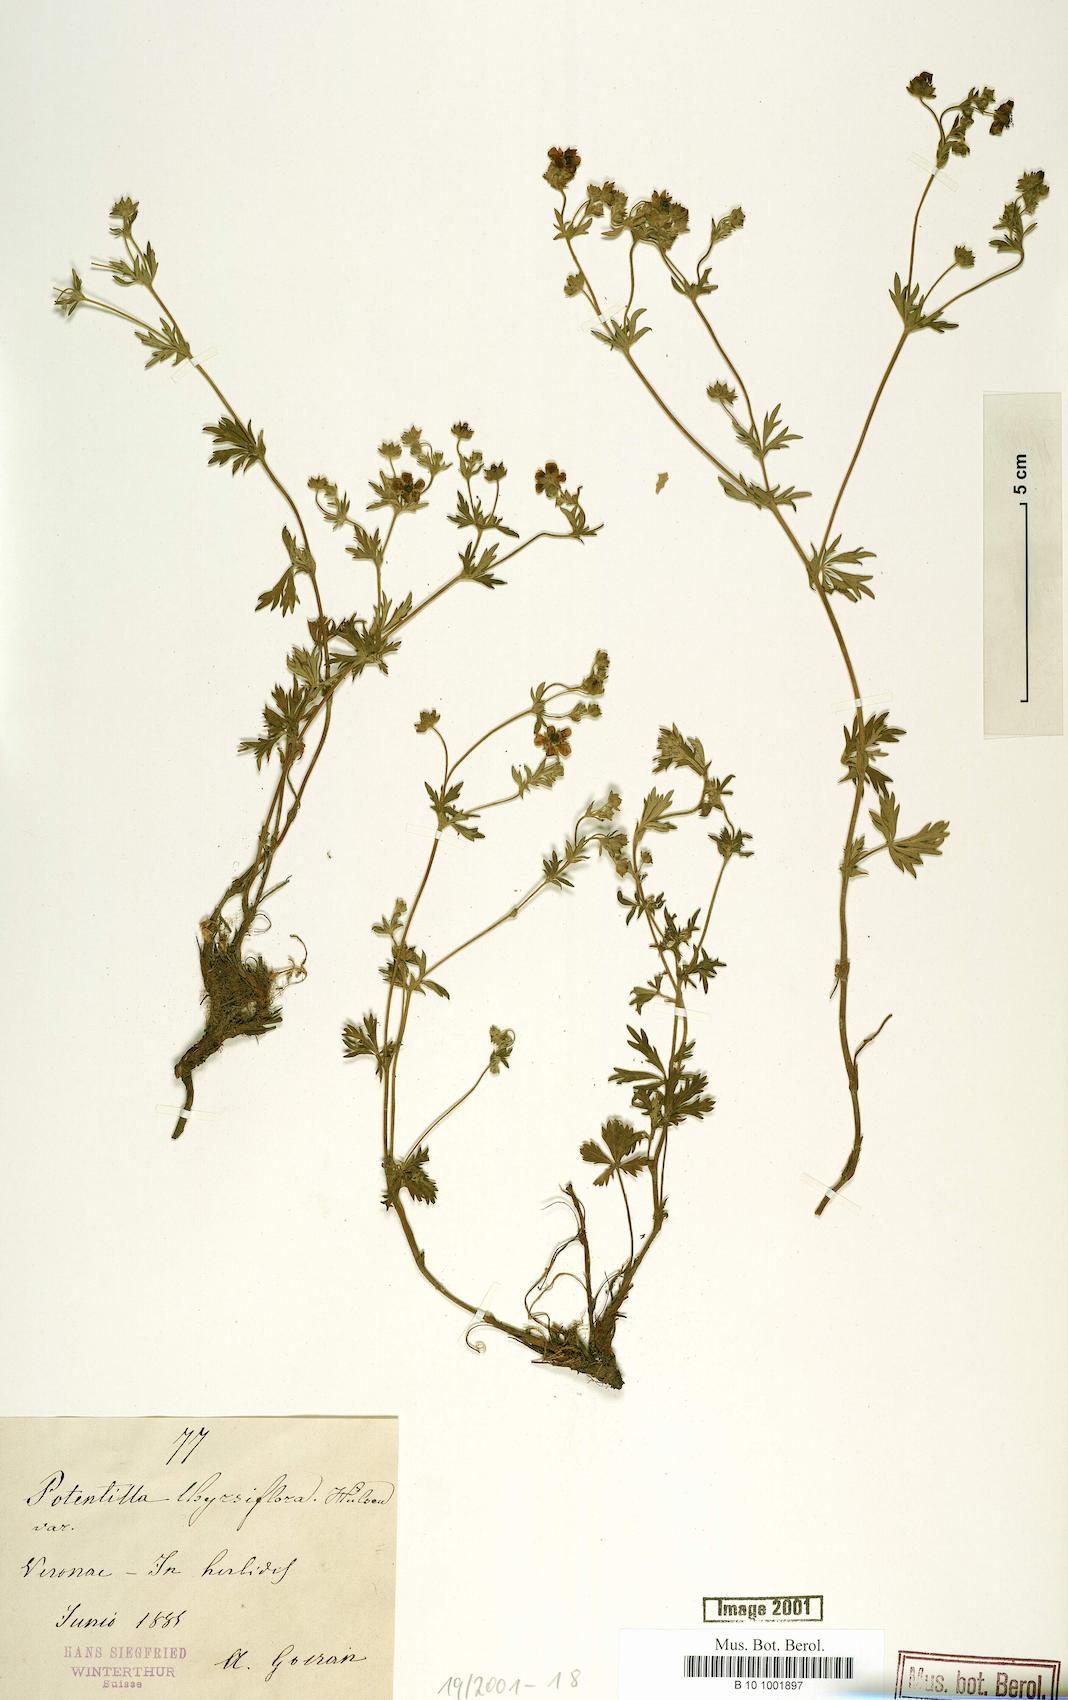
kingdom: Plantae
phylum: Tracheophyta
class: Magnoliopsida
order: Rosales
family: Rosaceae
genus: Potentilla
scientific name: Potentilla thyrsiflora
